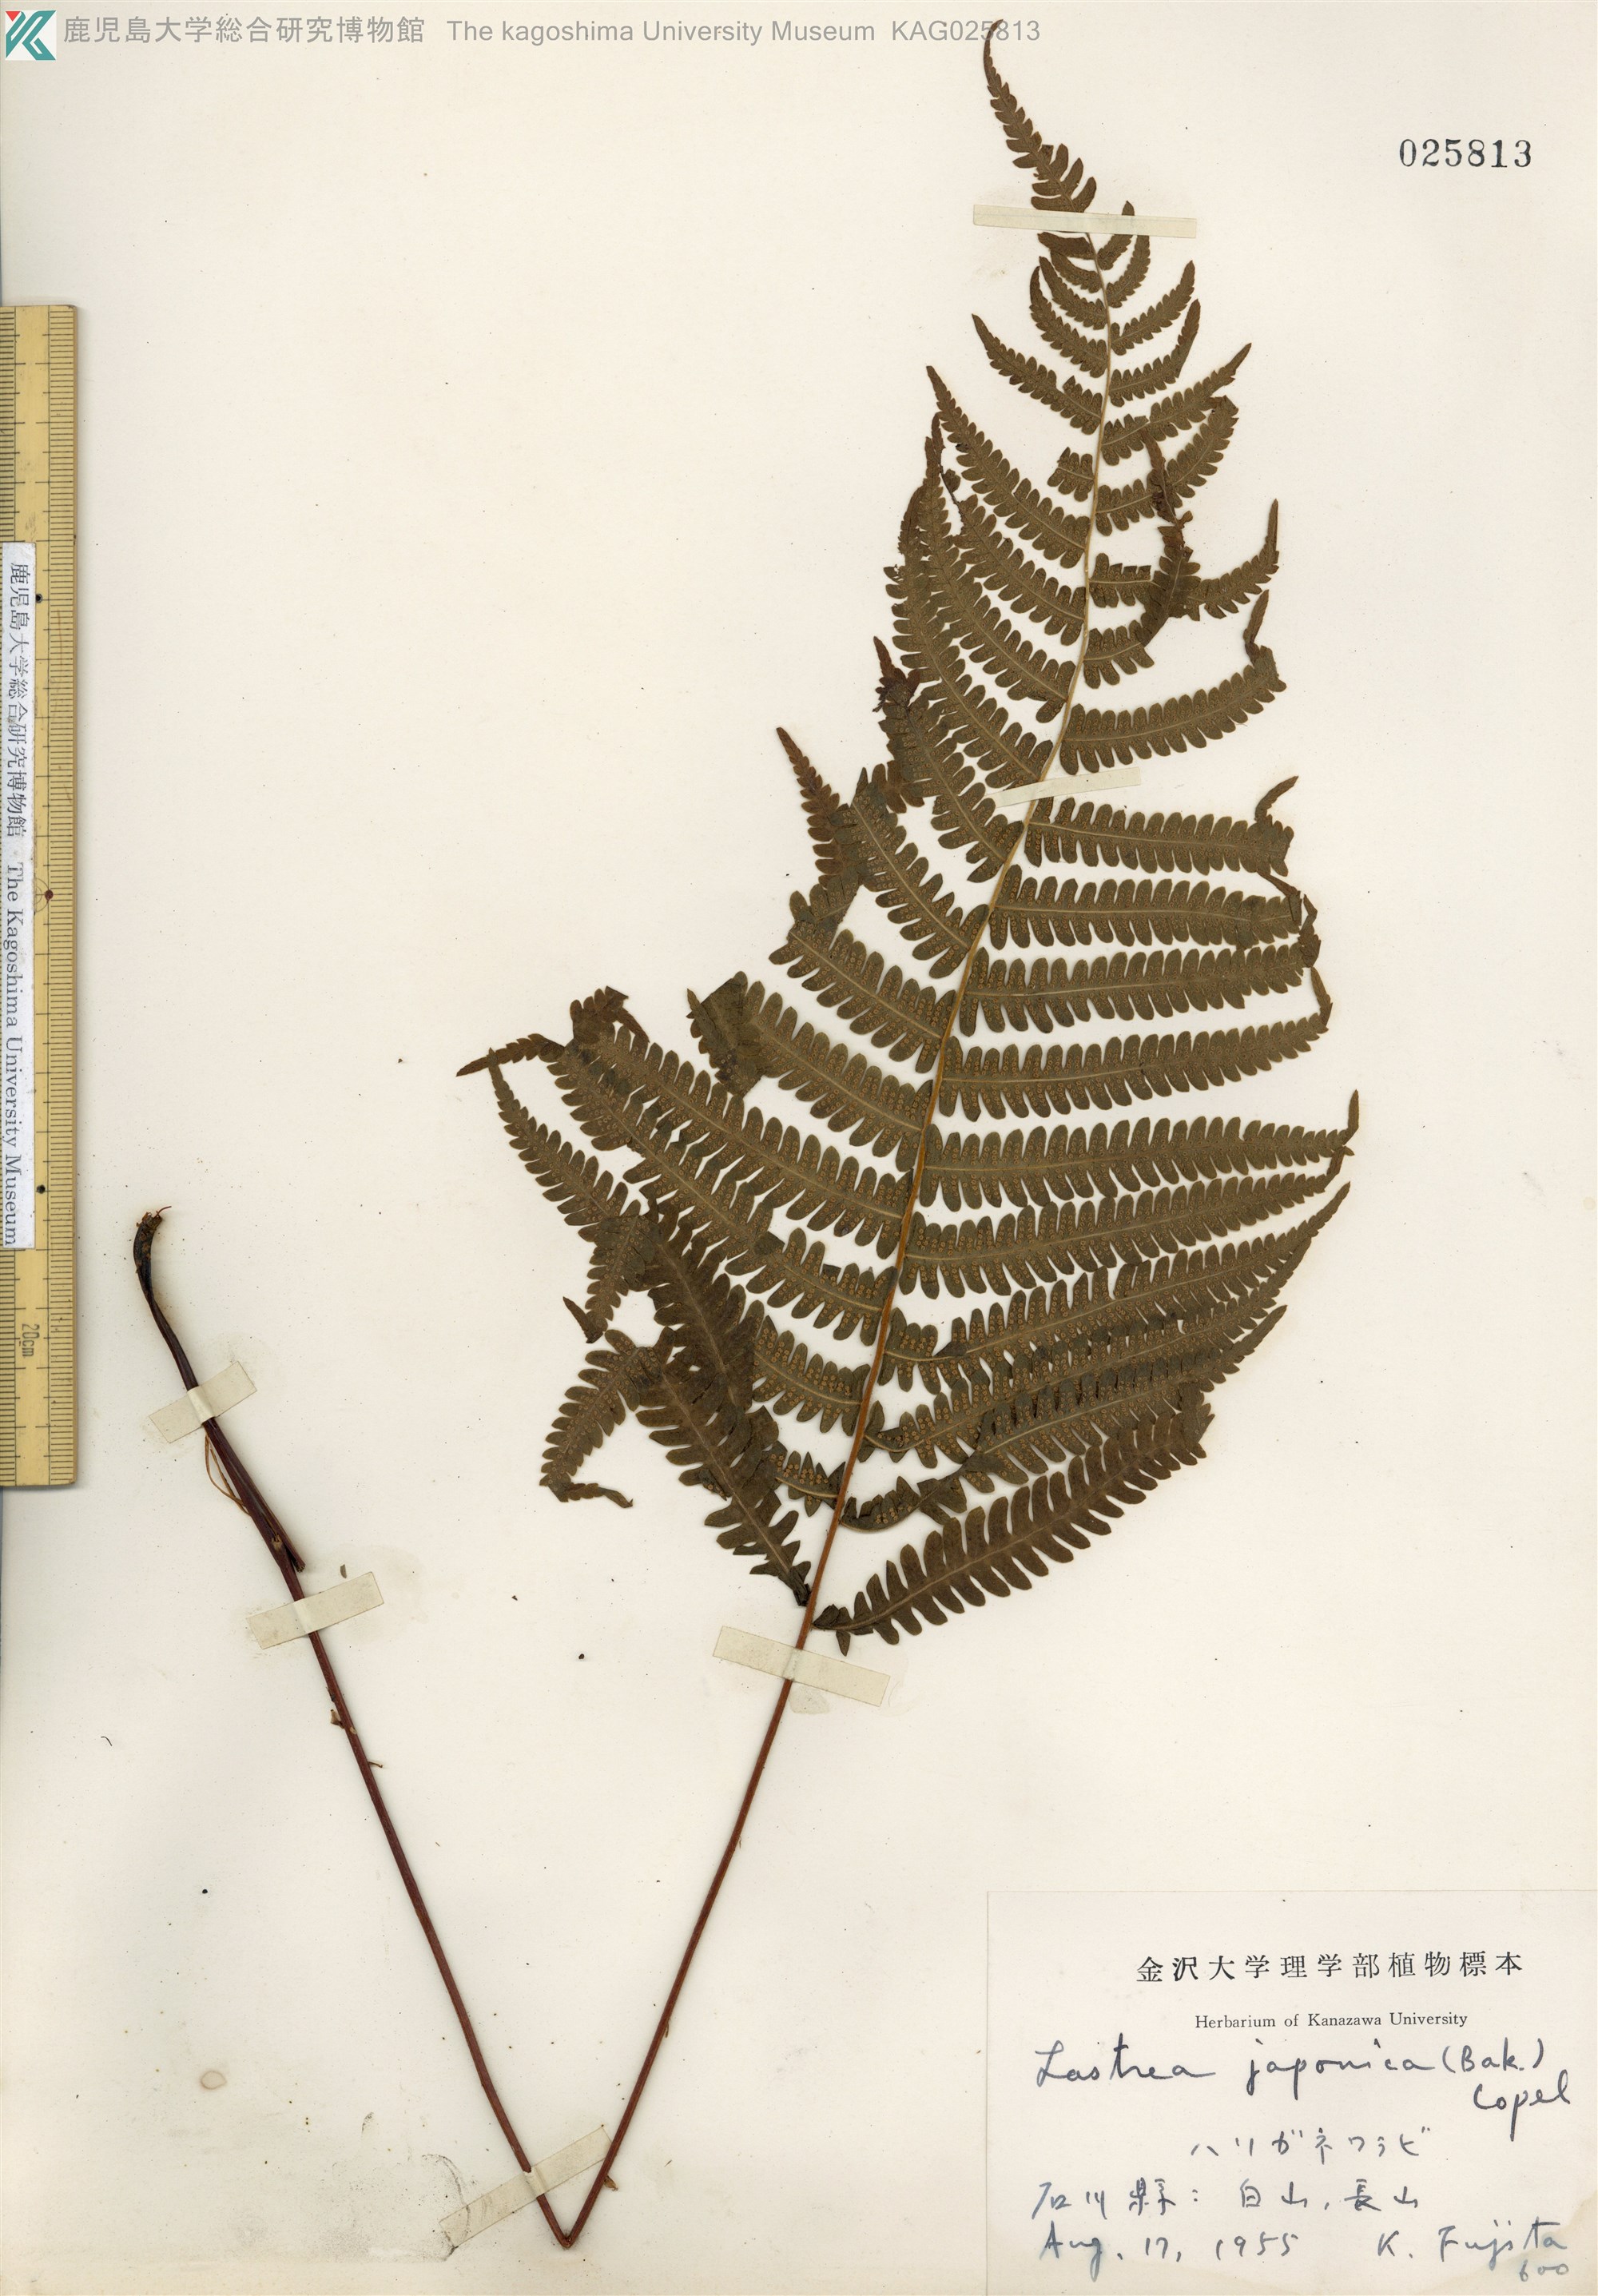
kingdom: Plantae
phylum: Tracheophyta
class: Polypodiopsida
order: Polypodiales
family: Thelypteridaceae
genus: Coryphopteris
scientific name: Coryphopteris japonica
